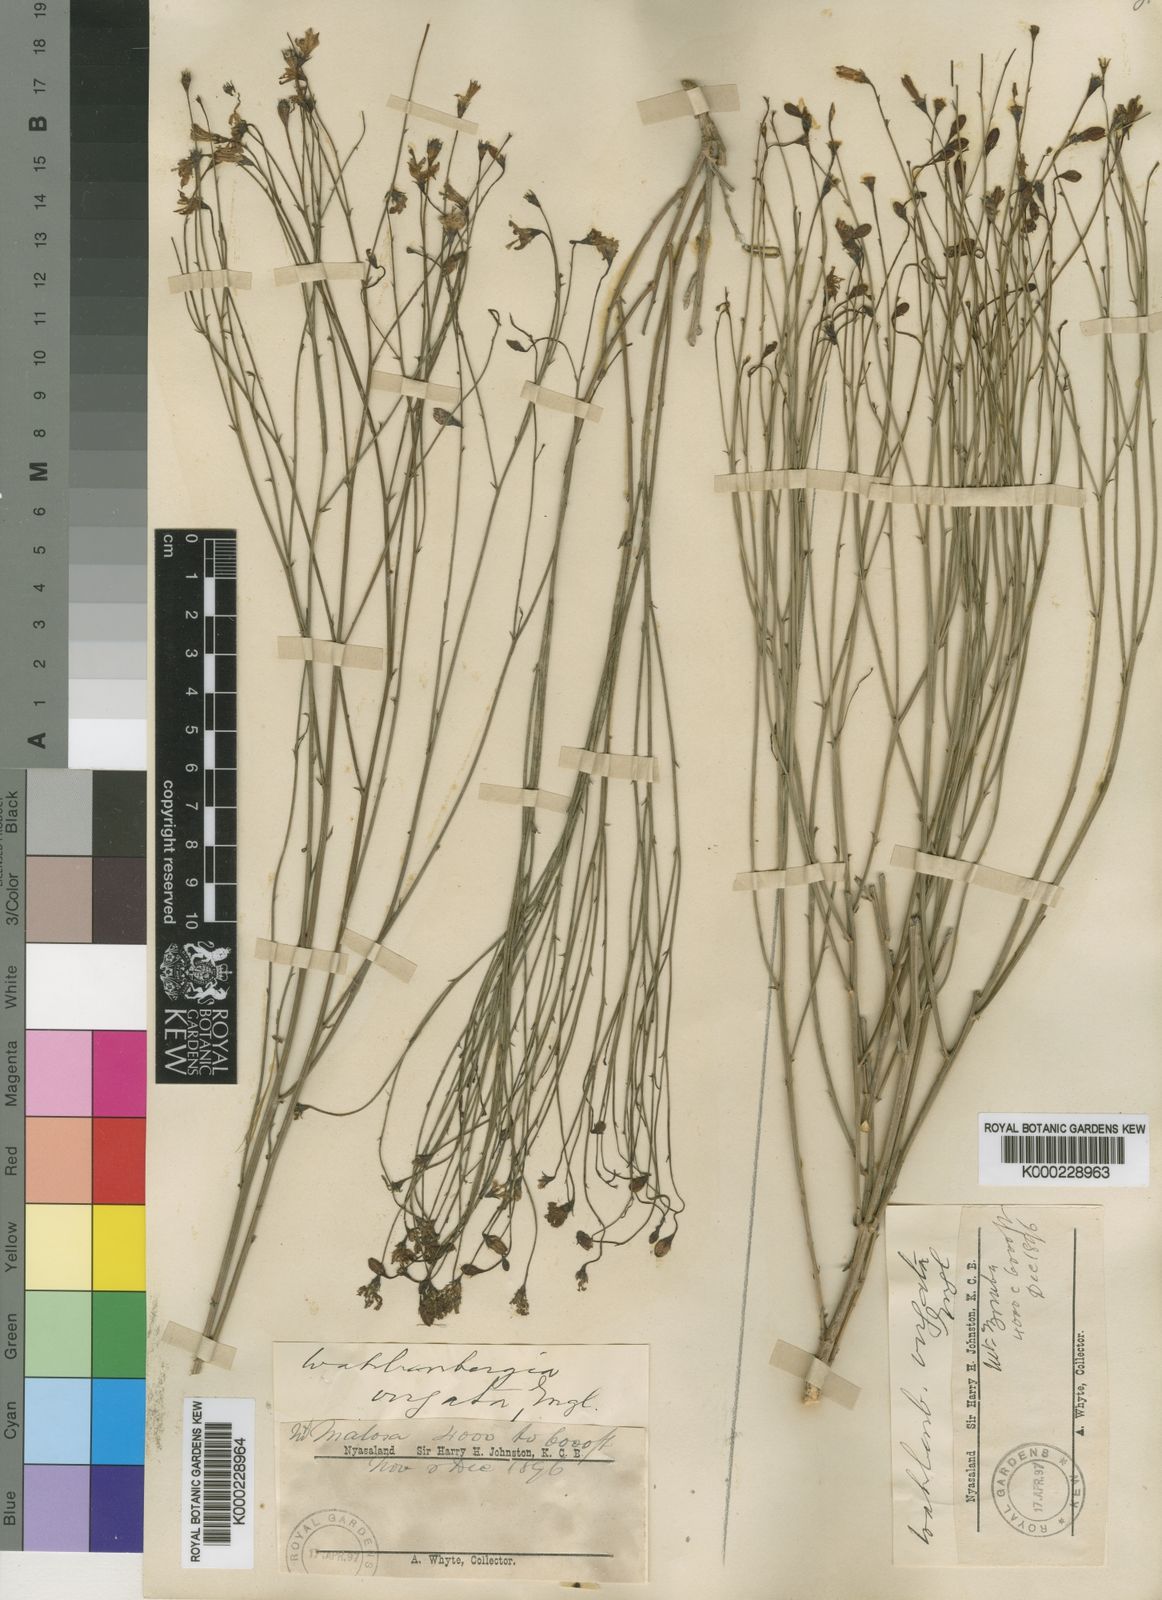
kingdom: Plantae
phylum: Tracheophyta
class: Magnoliopsida
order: Asterales
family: Campanulaceae
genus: Wahlenbergia
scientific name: Wahlenbergia virgata
